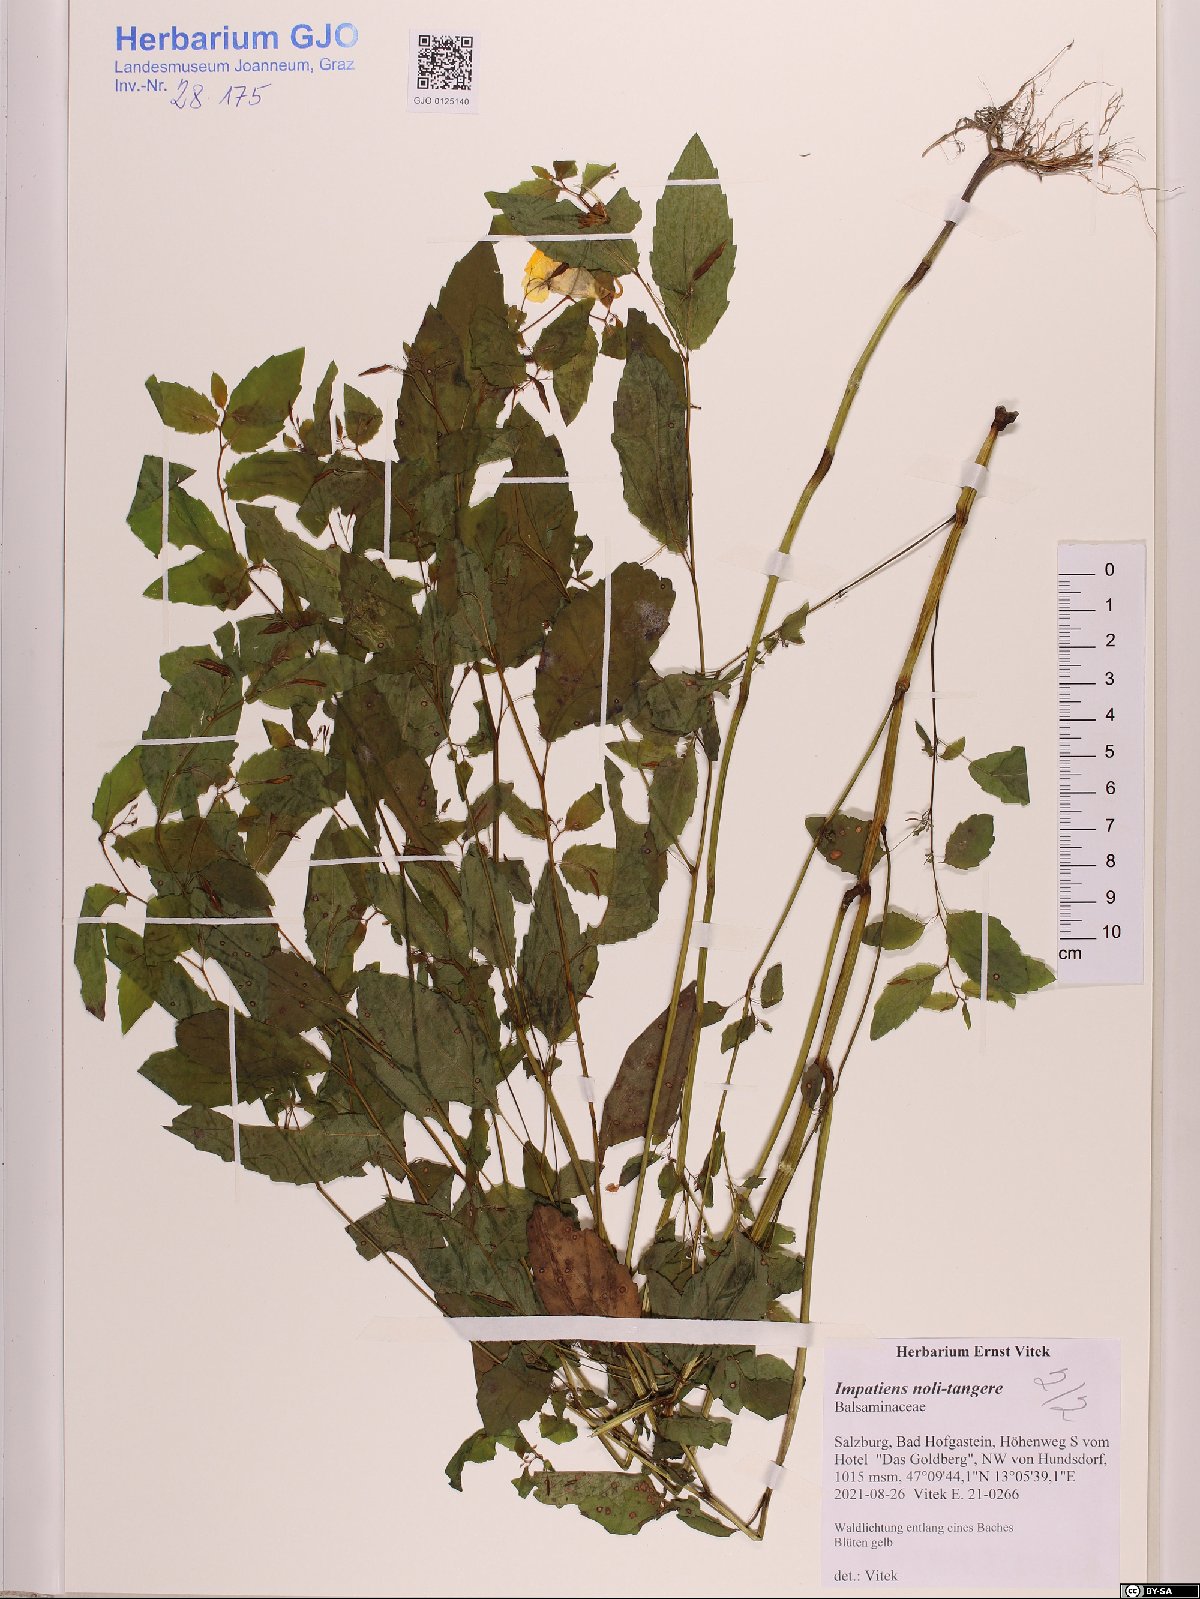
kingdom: Plantae
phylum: Tracheophyta
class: Magnoliopsida
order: Ericales
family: Balsaminaceae
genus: Impatiens
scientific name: Impatiens noli-tangere
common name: Touch-me-not balsam
